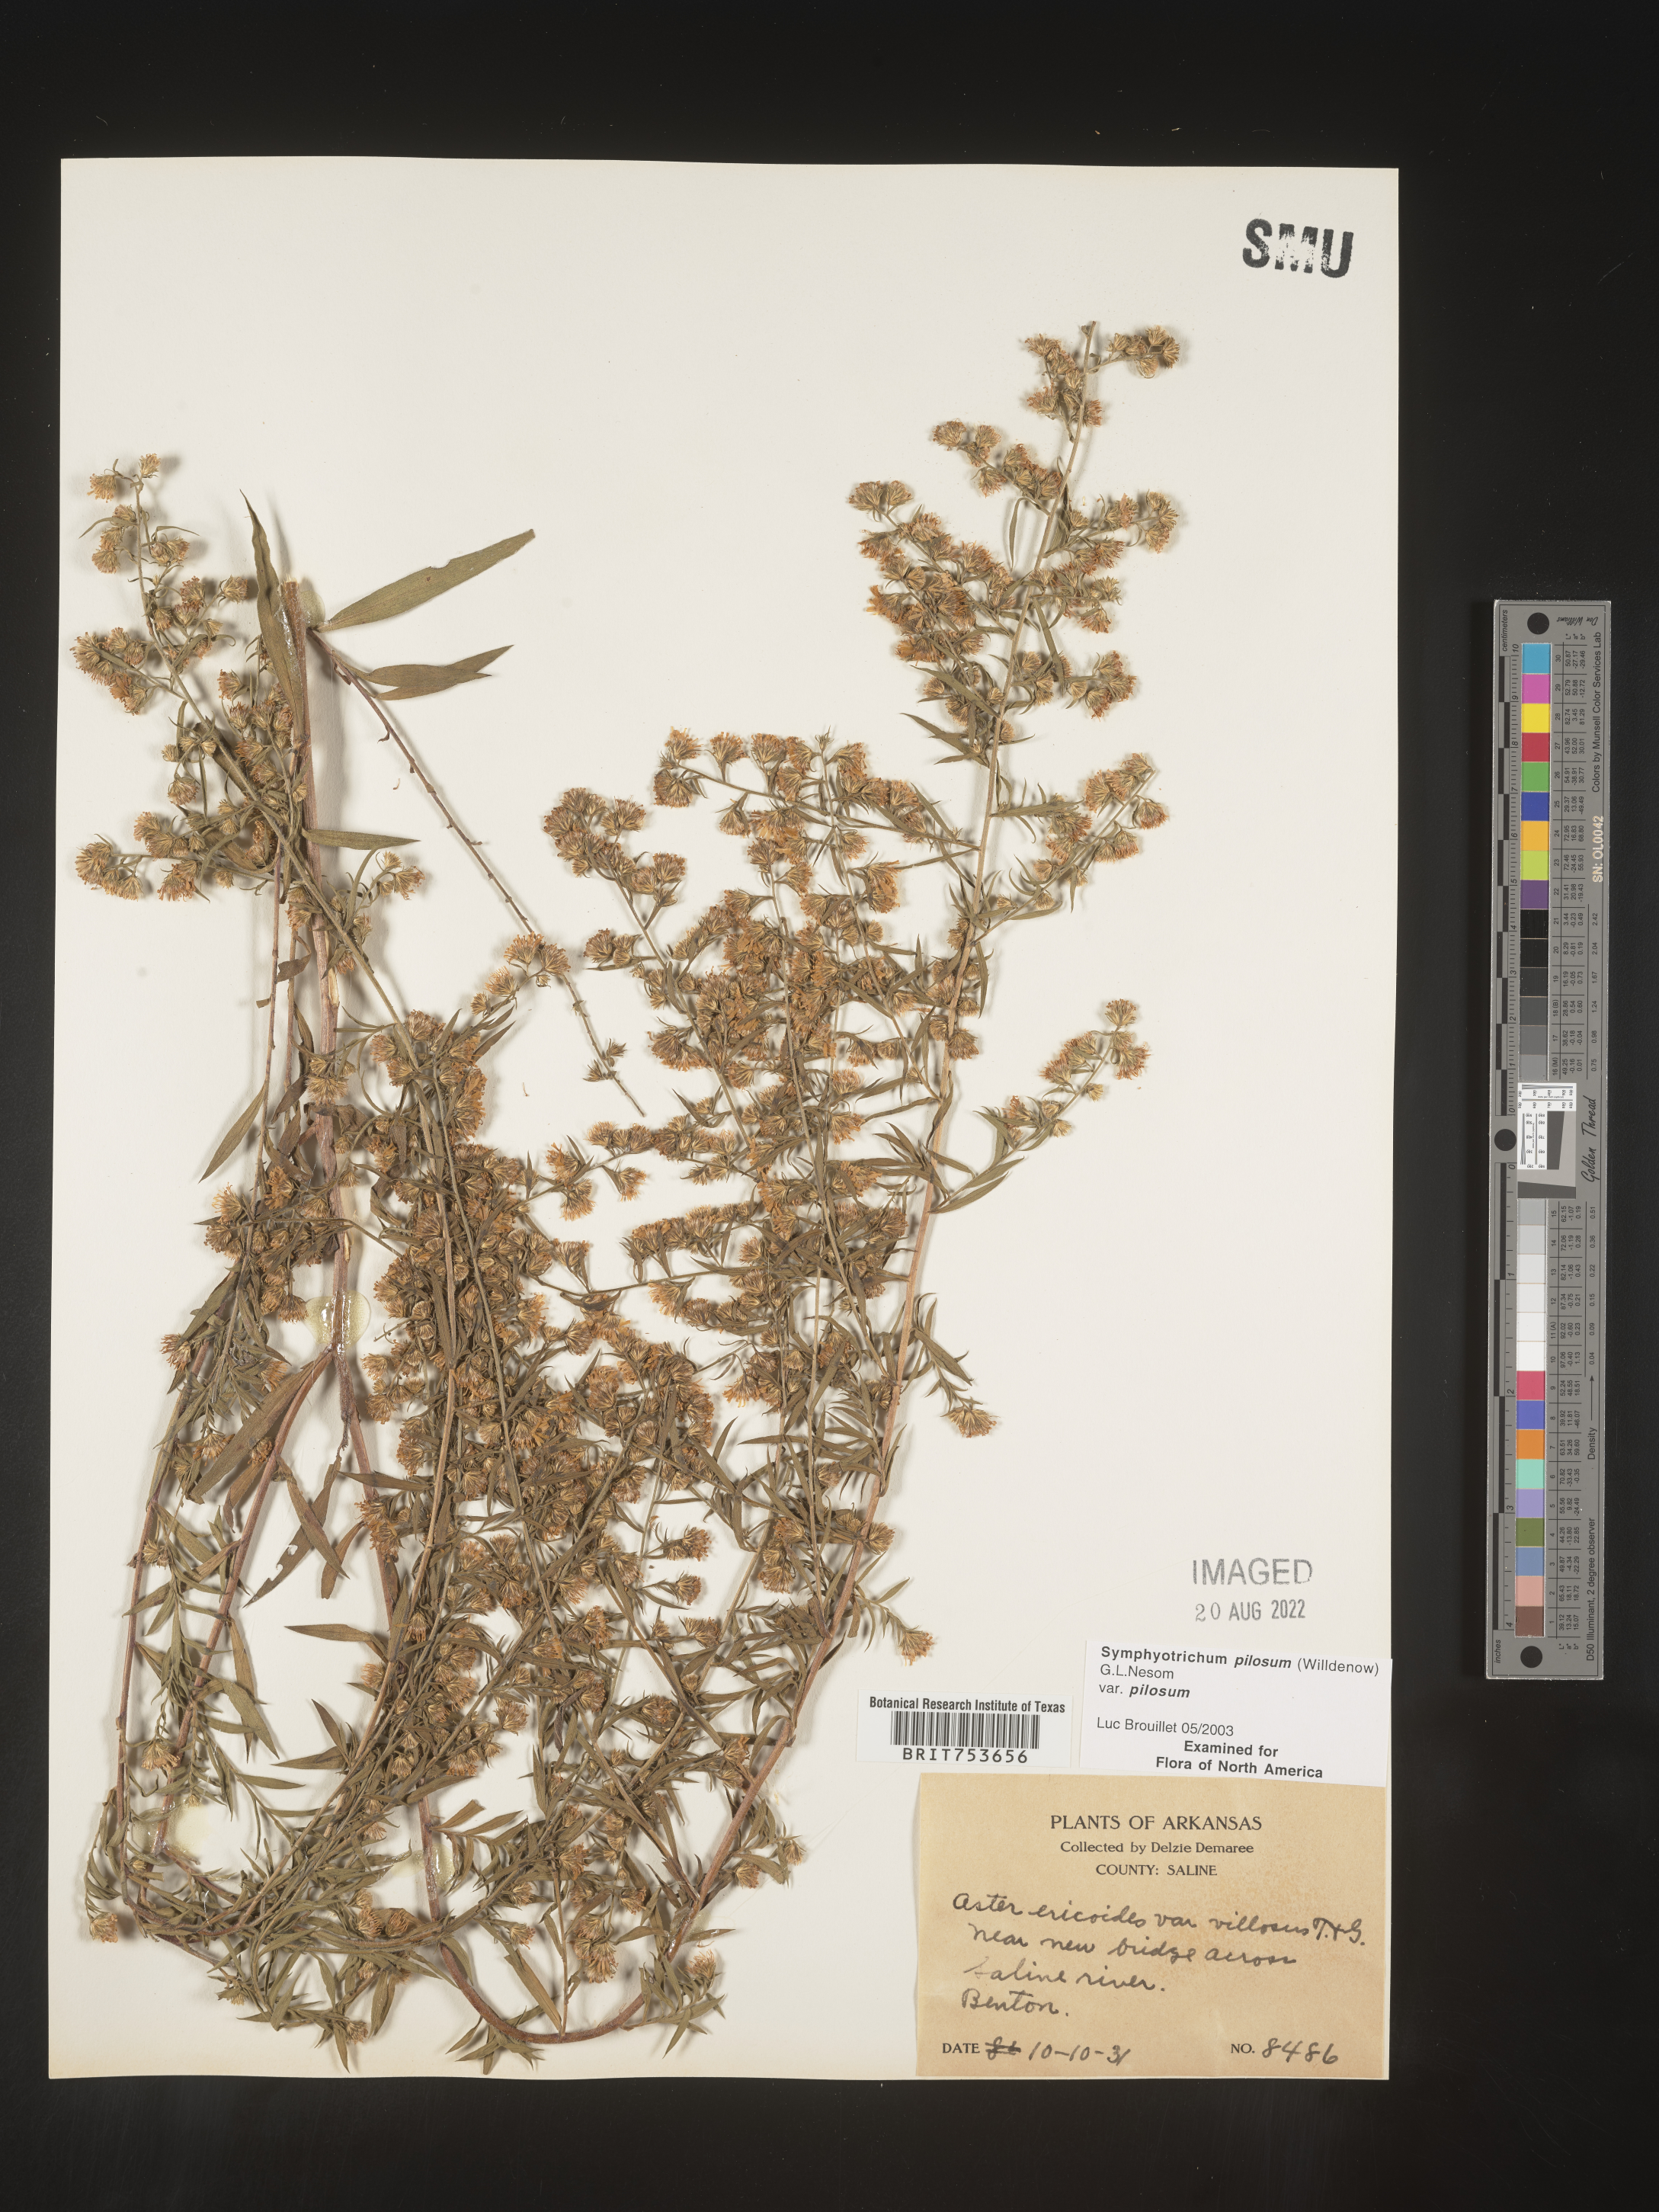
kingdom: Plantae
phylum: Tracheophyta
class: Magnoliopsida
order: Asterales
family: Asteraceae
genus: Symphyotrichum
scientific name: Symphyotrichum pilosum
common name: Awl aster
